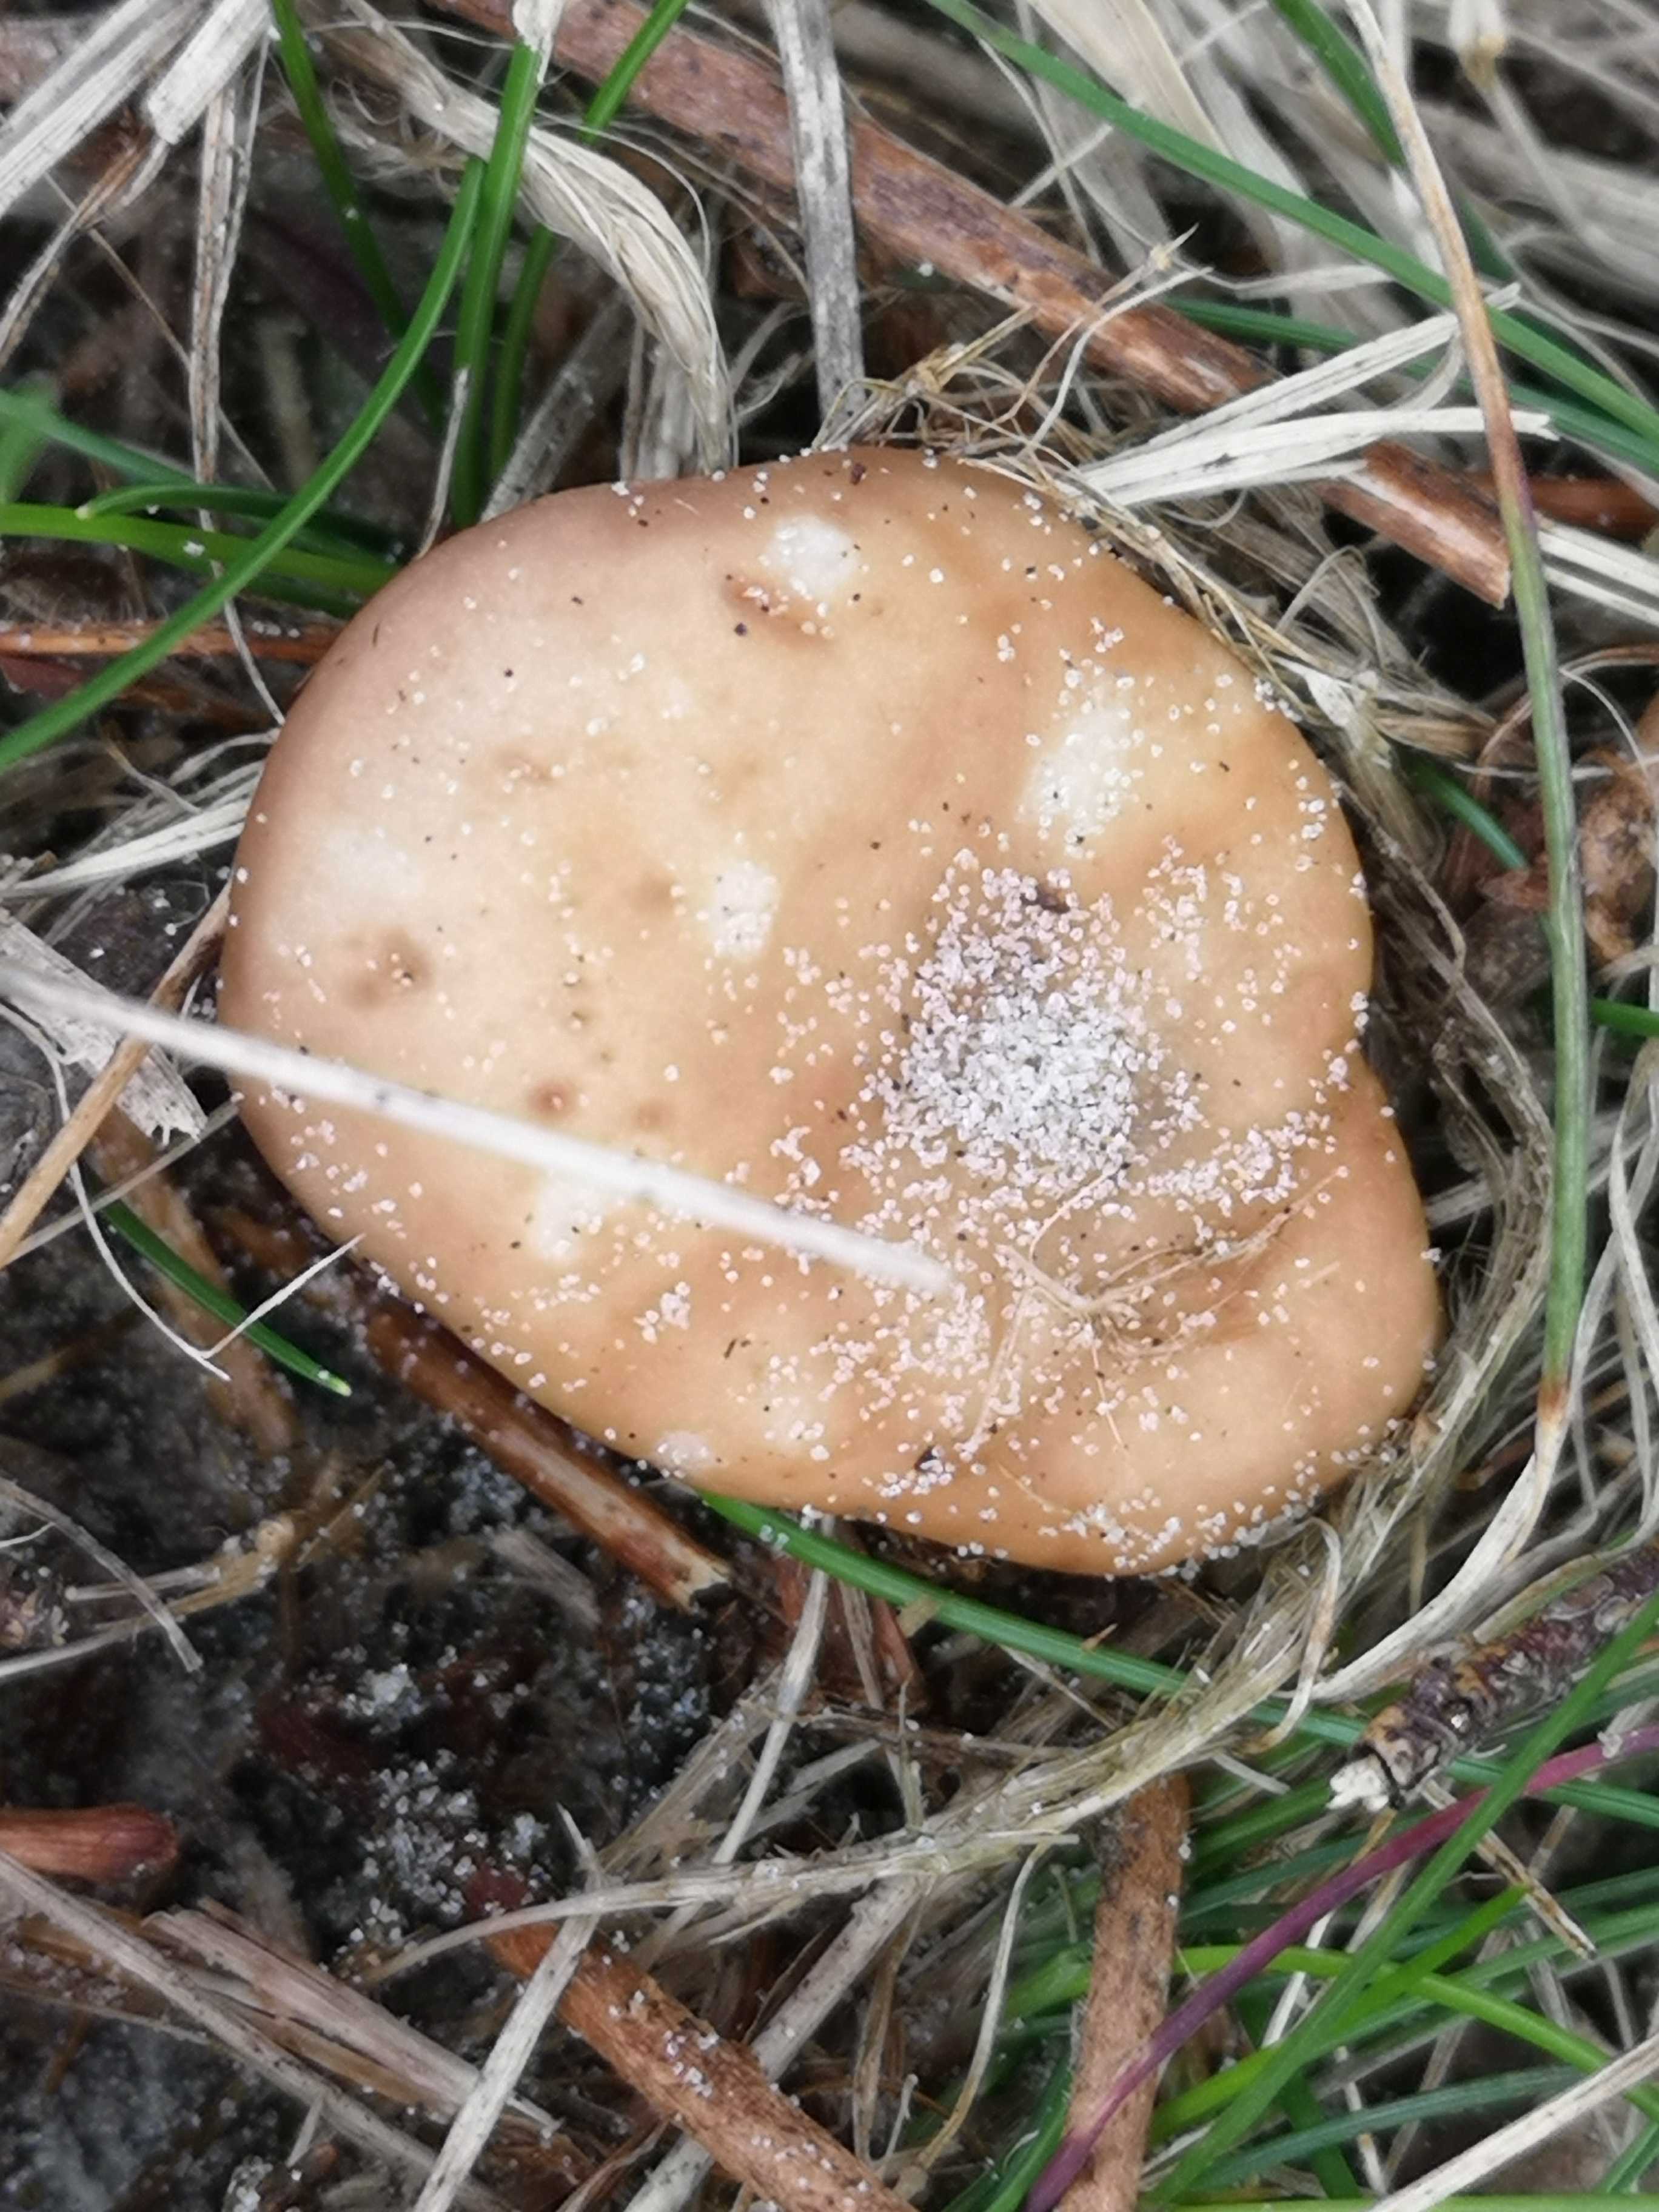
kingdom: Fungi
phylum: Basidiomycota
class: Agaricomycetes
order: Agaricales
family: Tricholomataceae
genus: Clitocybe
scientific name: Clitocybe
